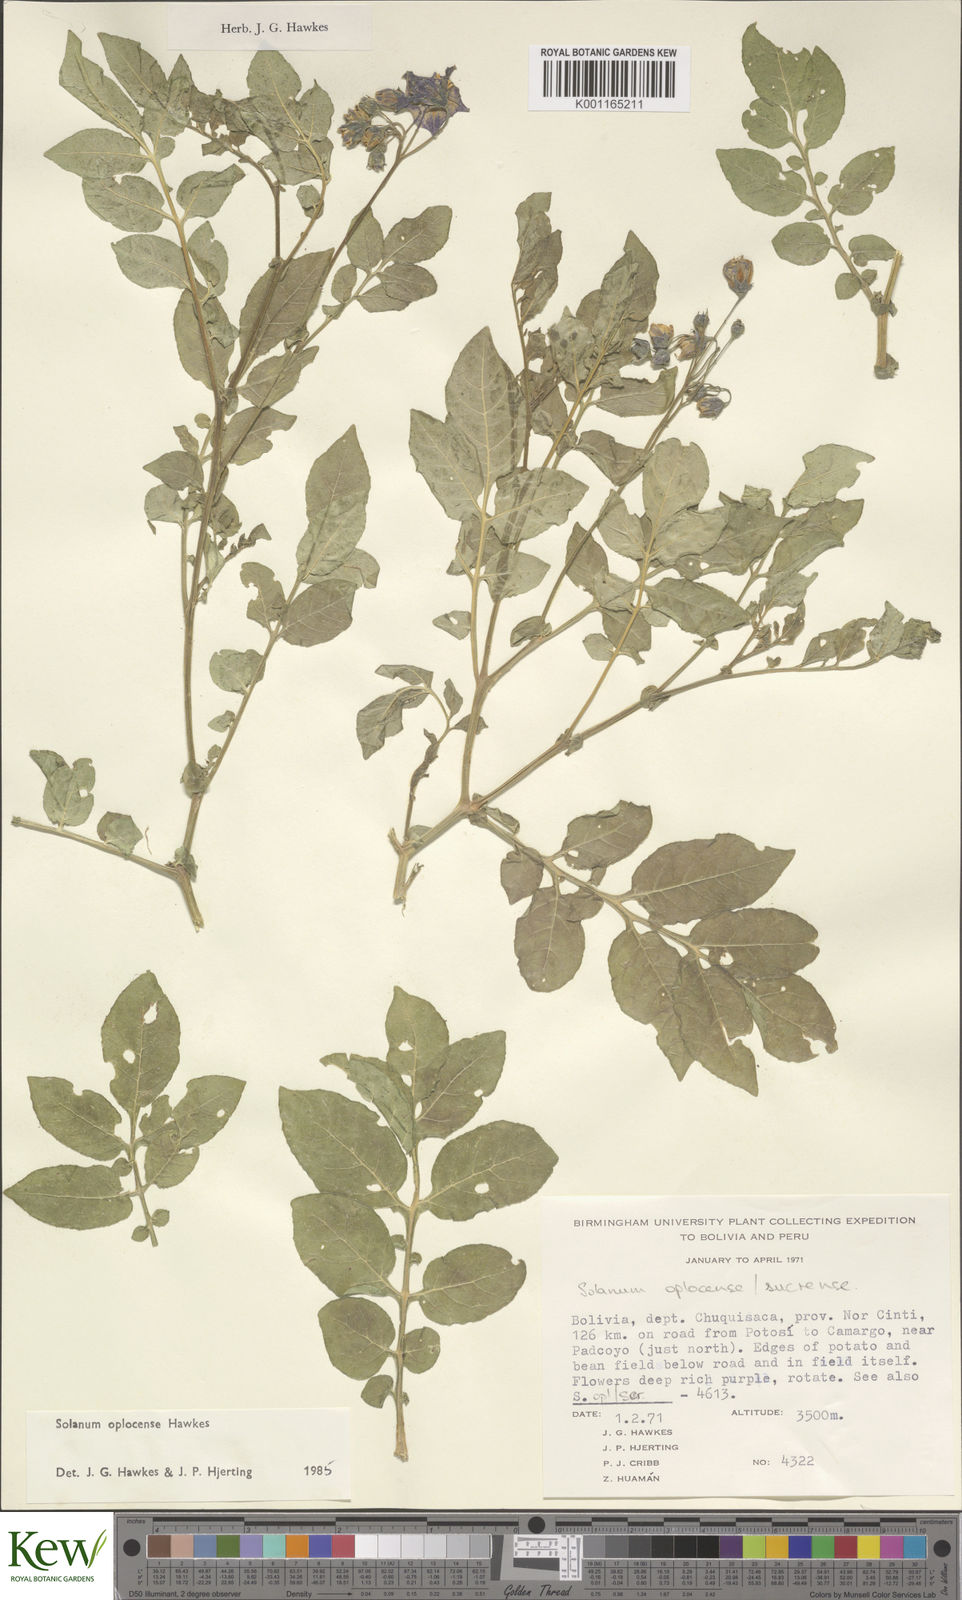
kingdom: Plantae
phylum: Tracheophyta
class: Magnoliopsida
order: Solanales
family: Solanaceae
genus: Solanum
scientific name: Solanum brevicaule
